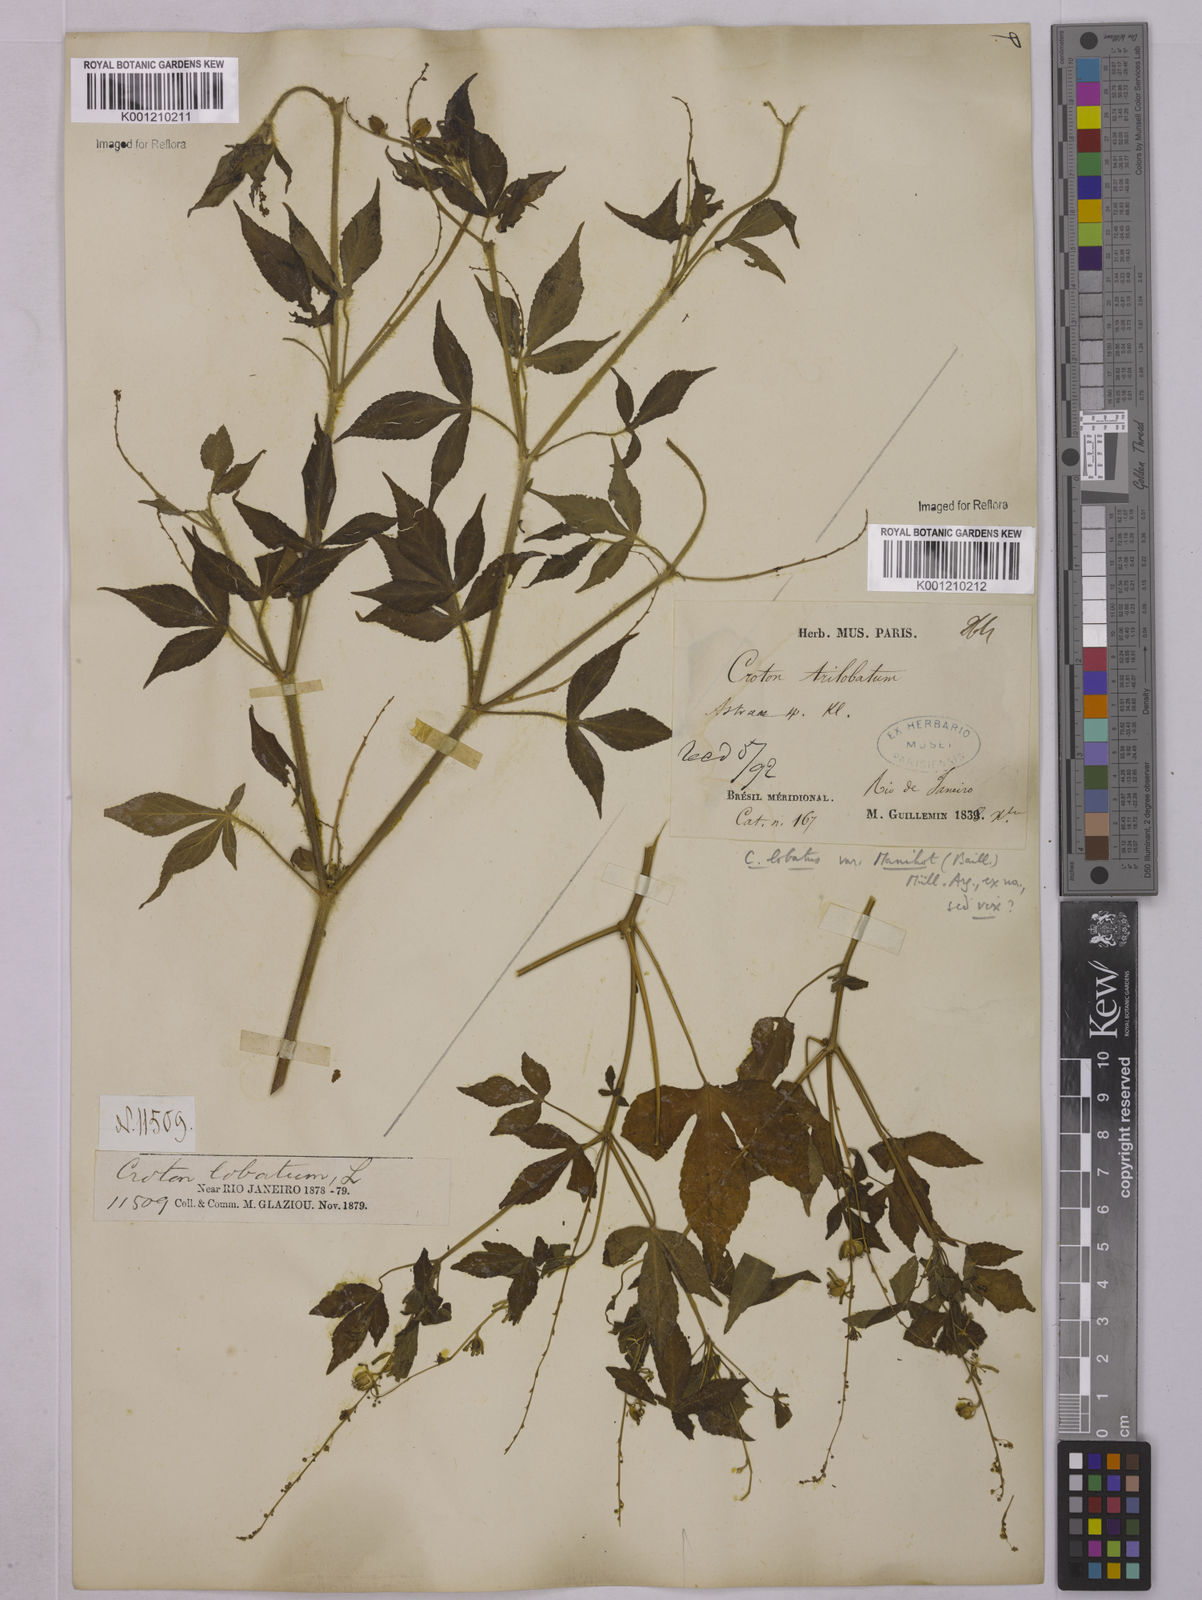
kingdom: Plantae
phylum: Tracheophyta
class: Magnoliopsida
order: Malpighiales
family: Euphorbiaceae
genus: Astraea
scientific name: Astraea
